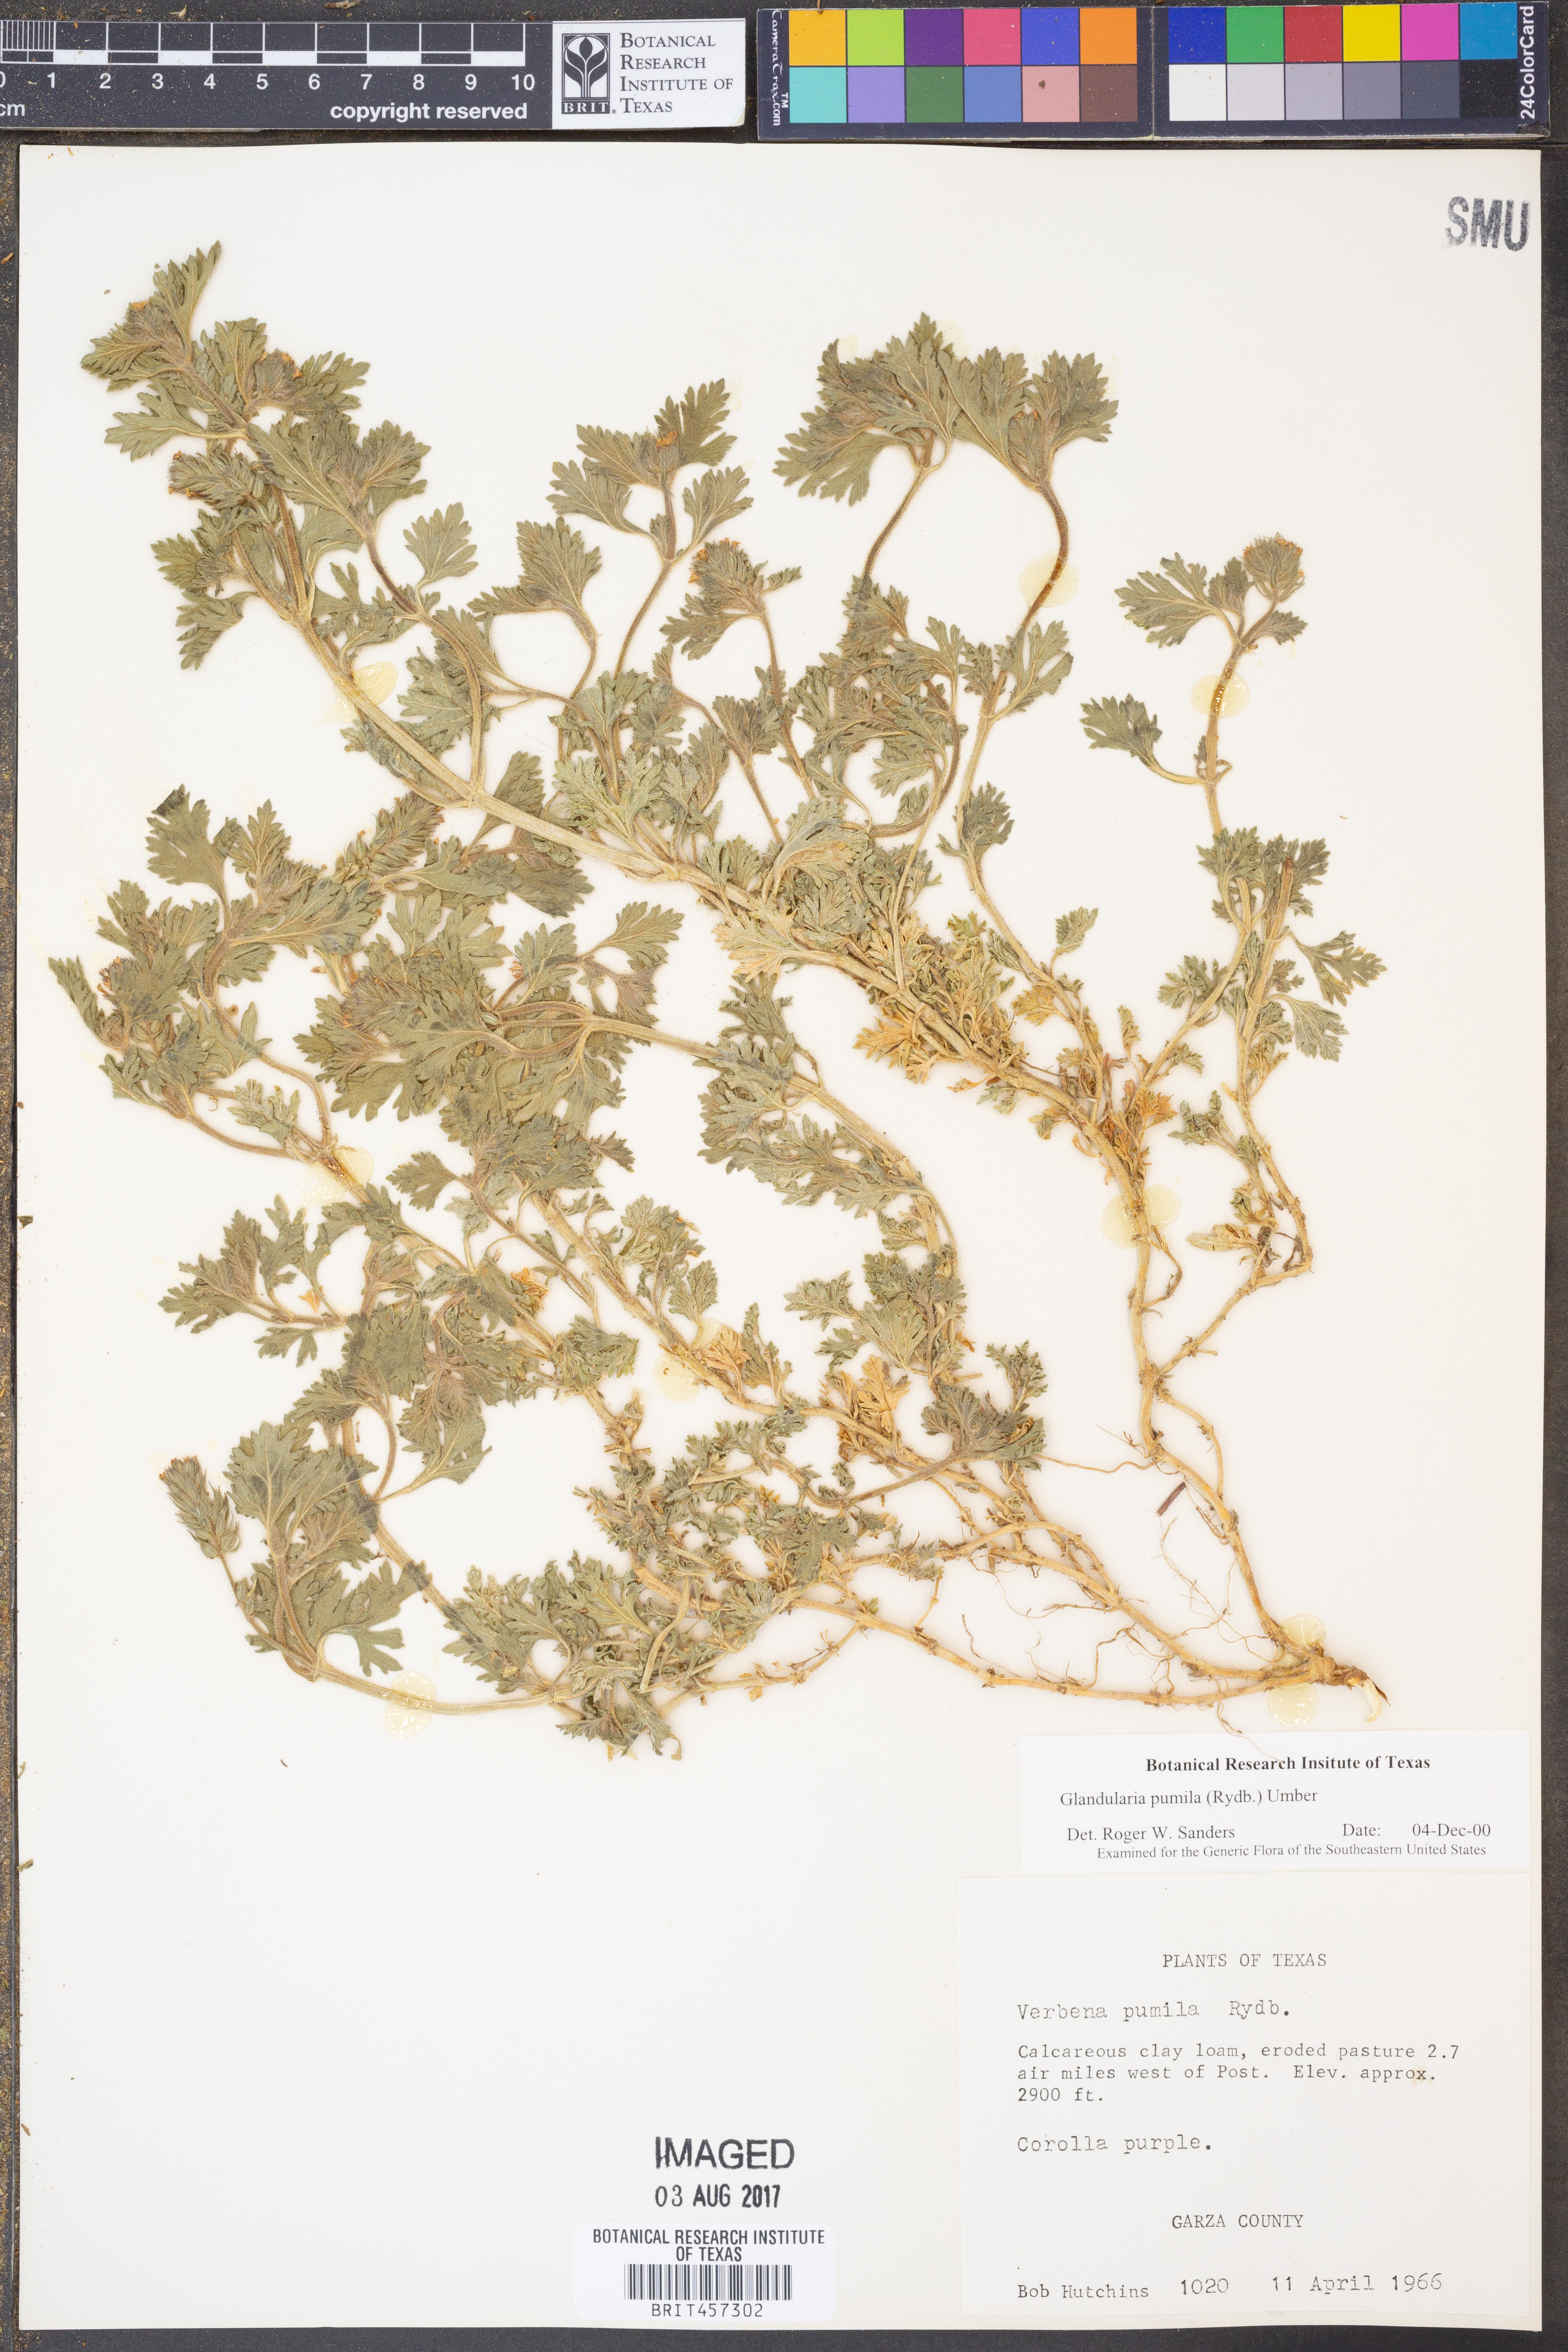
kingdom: Plantae
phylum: Tracheophyta
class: Magnoliopsida
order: Lamiales
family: Verbenaceae
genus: Verbena
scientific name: Verbena pumila
